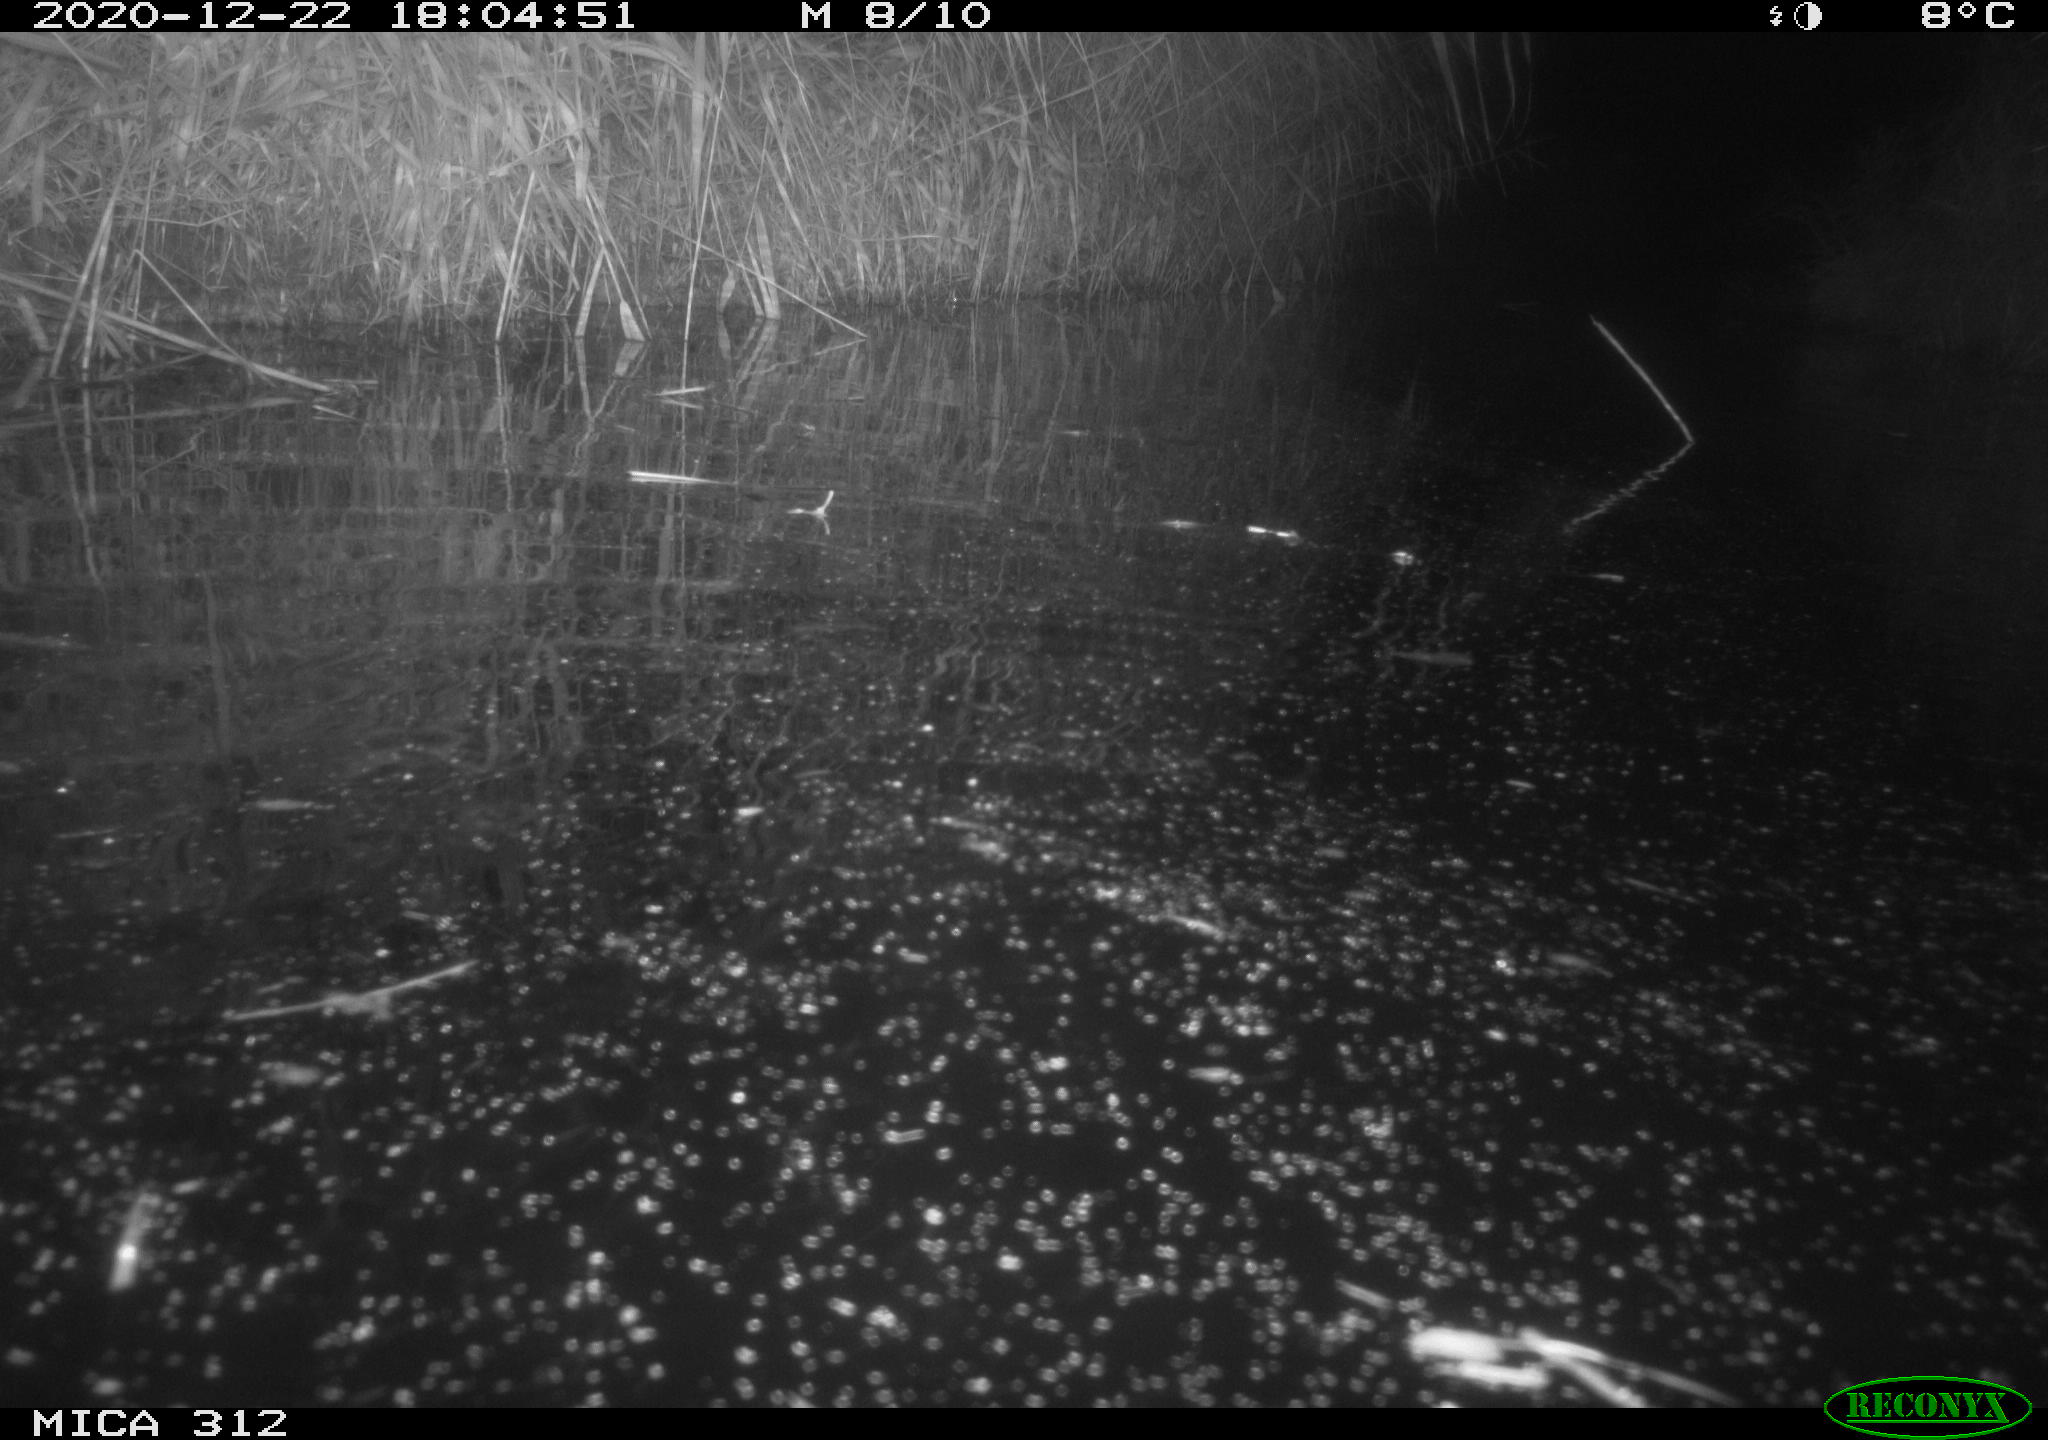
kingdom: Animalia
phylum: Chordata
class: Mammalia
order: Rodentia
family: Muridae
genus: Rattus
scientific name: Rattus norvegicus
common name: Brown rat
